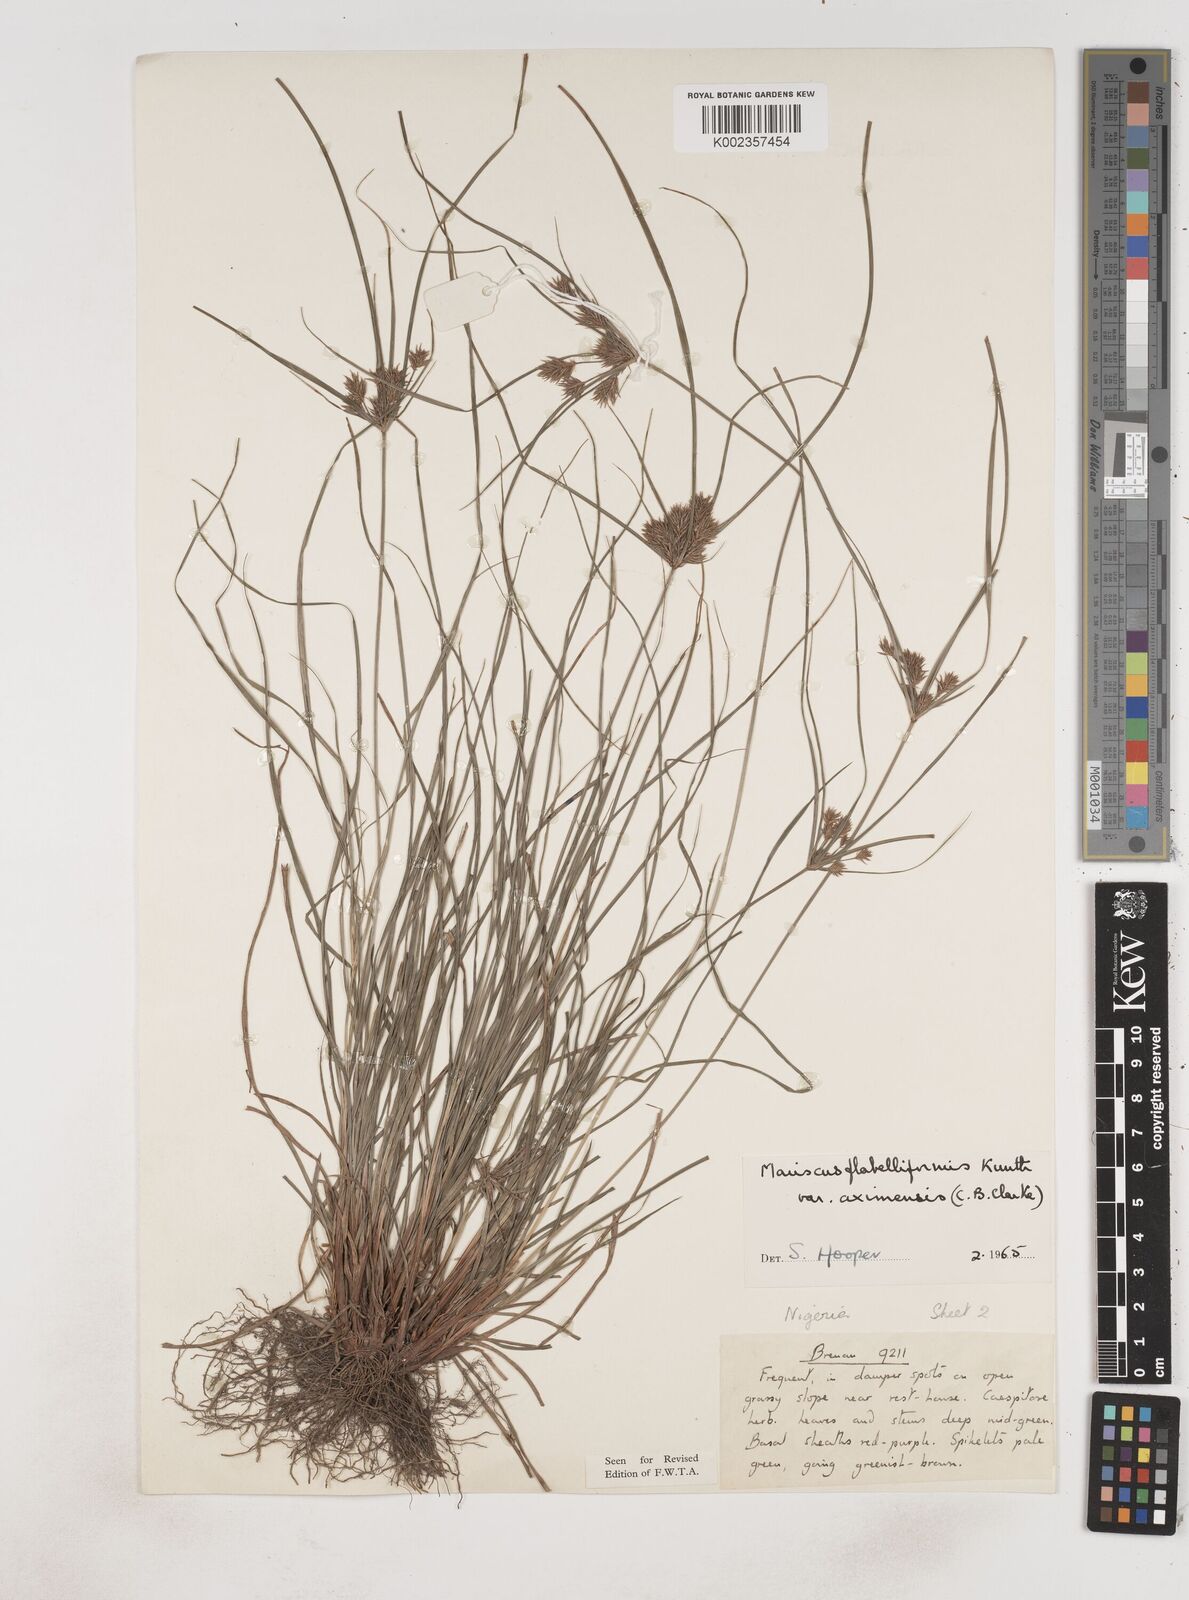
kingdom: Plantae
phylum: Tracheophyta
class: Liliopsida
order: Poales
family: Cyperaceae
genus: Cyperus
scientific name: Cyperus tenuis
